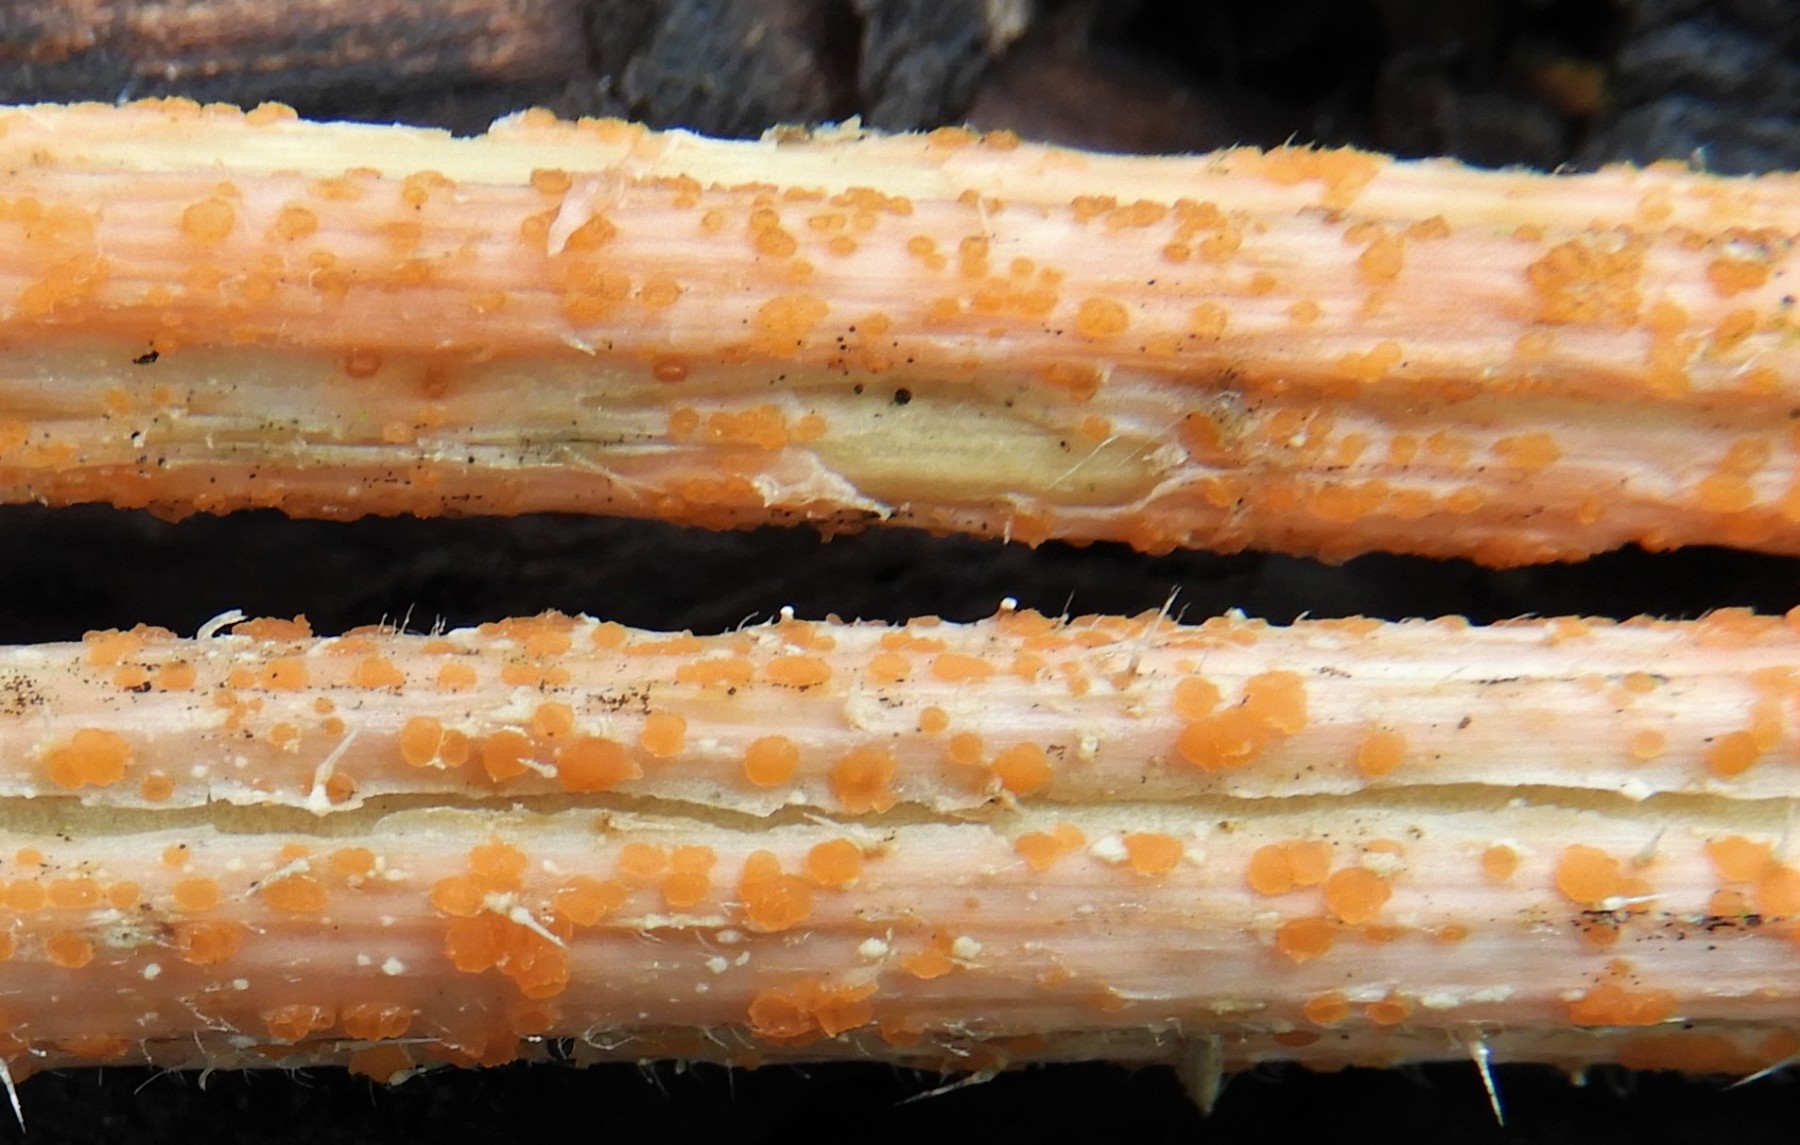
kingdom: Fungi
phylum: Ascomycota
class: Leotiomycetes
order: Helotiales
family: Calloriaceae
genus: Calloria
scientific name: Calloria urticae
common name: nælde-orangeskive
